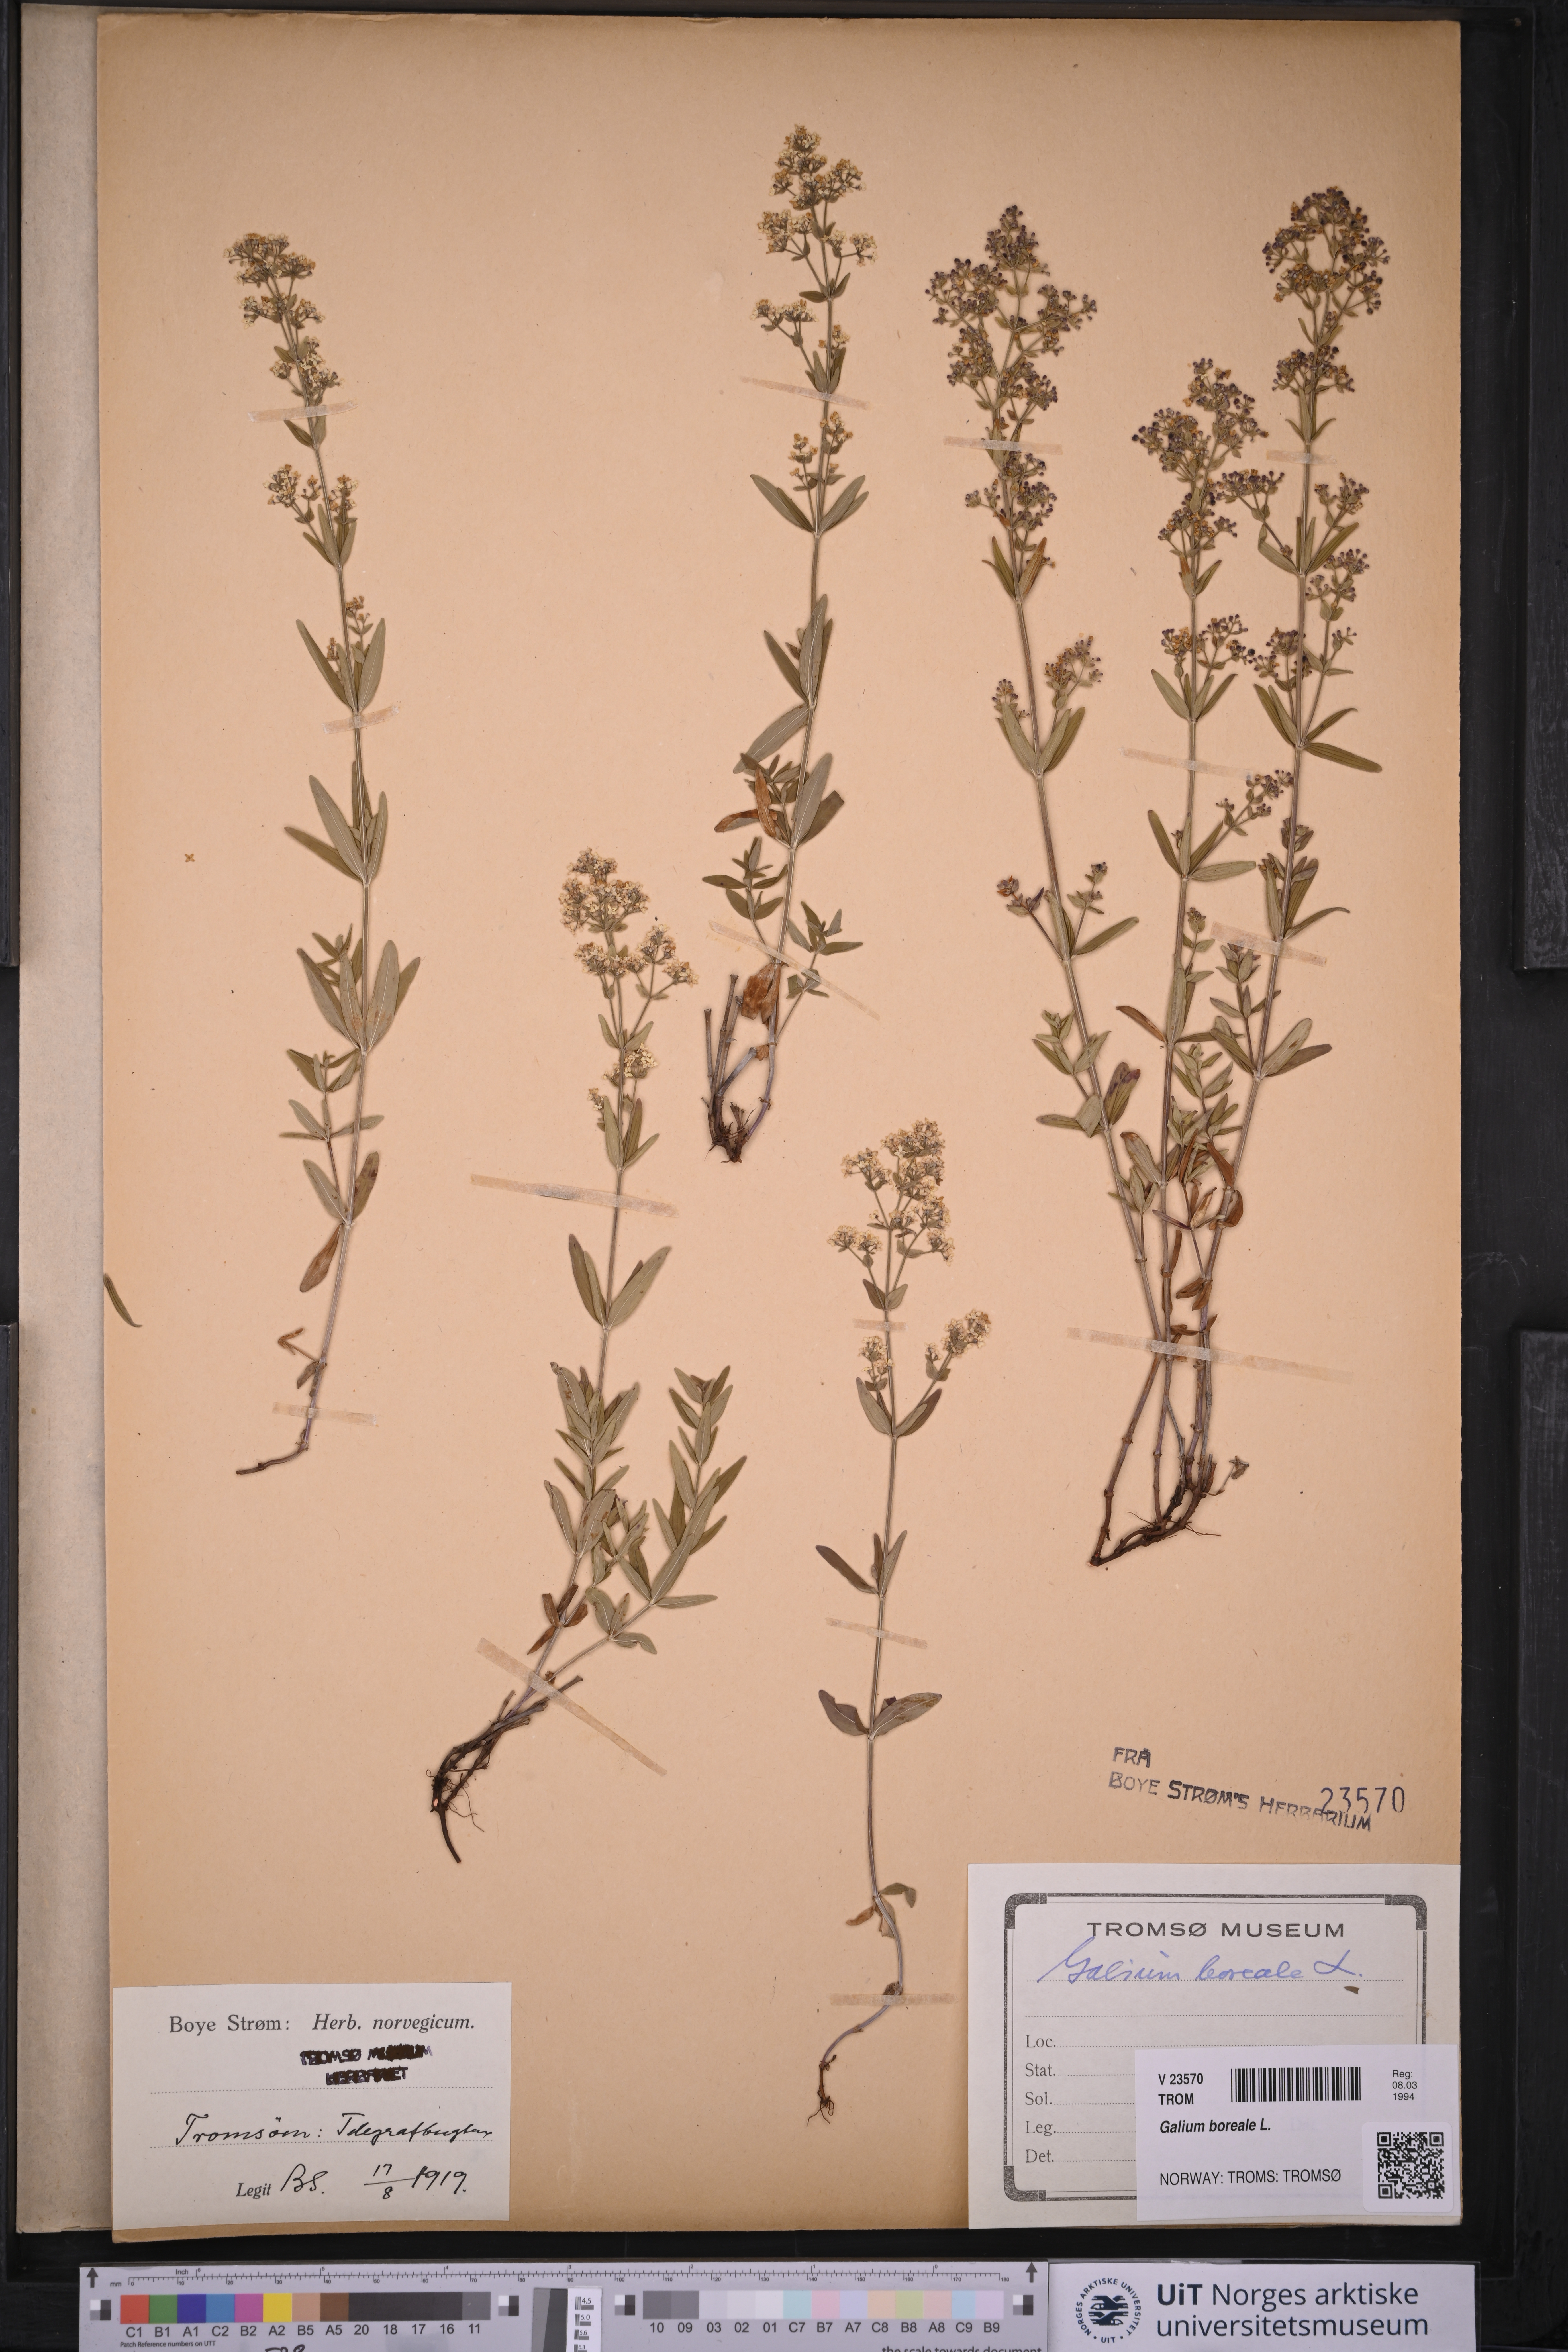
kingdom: Plantae
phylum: Tracheophyta
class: Magnoliopsida
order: Gentianales
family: Rubiaceae
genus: Galium
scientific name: Galium boreale
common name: Northern bedstraw
